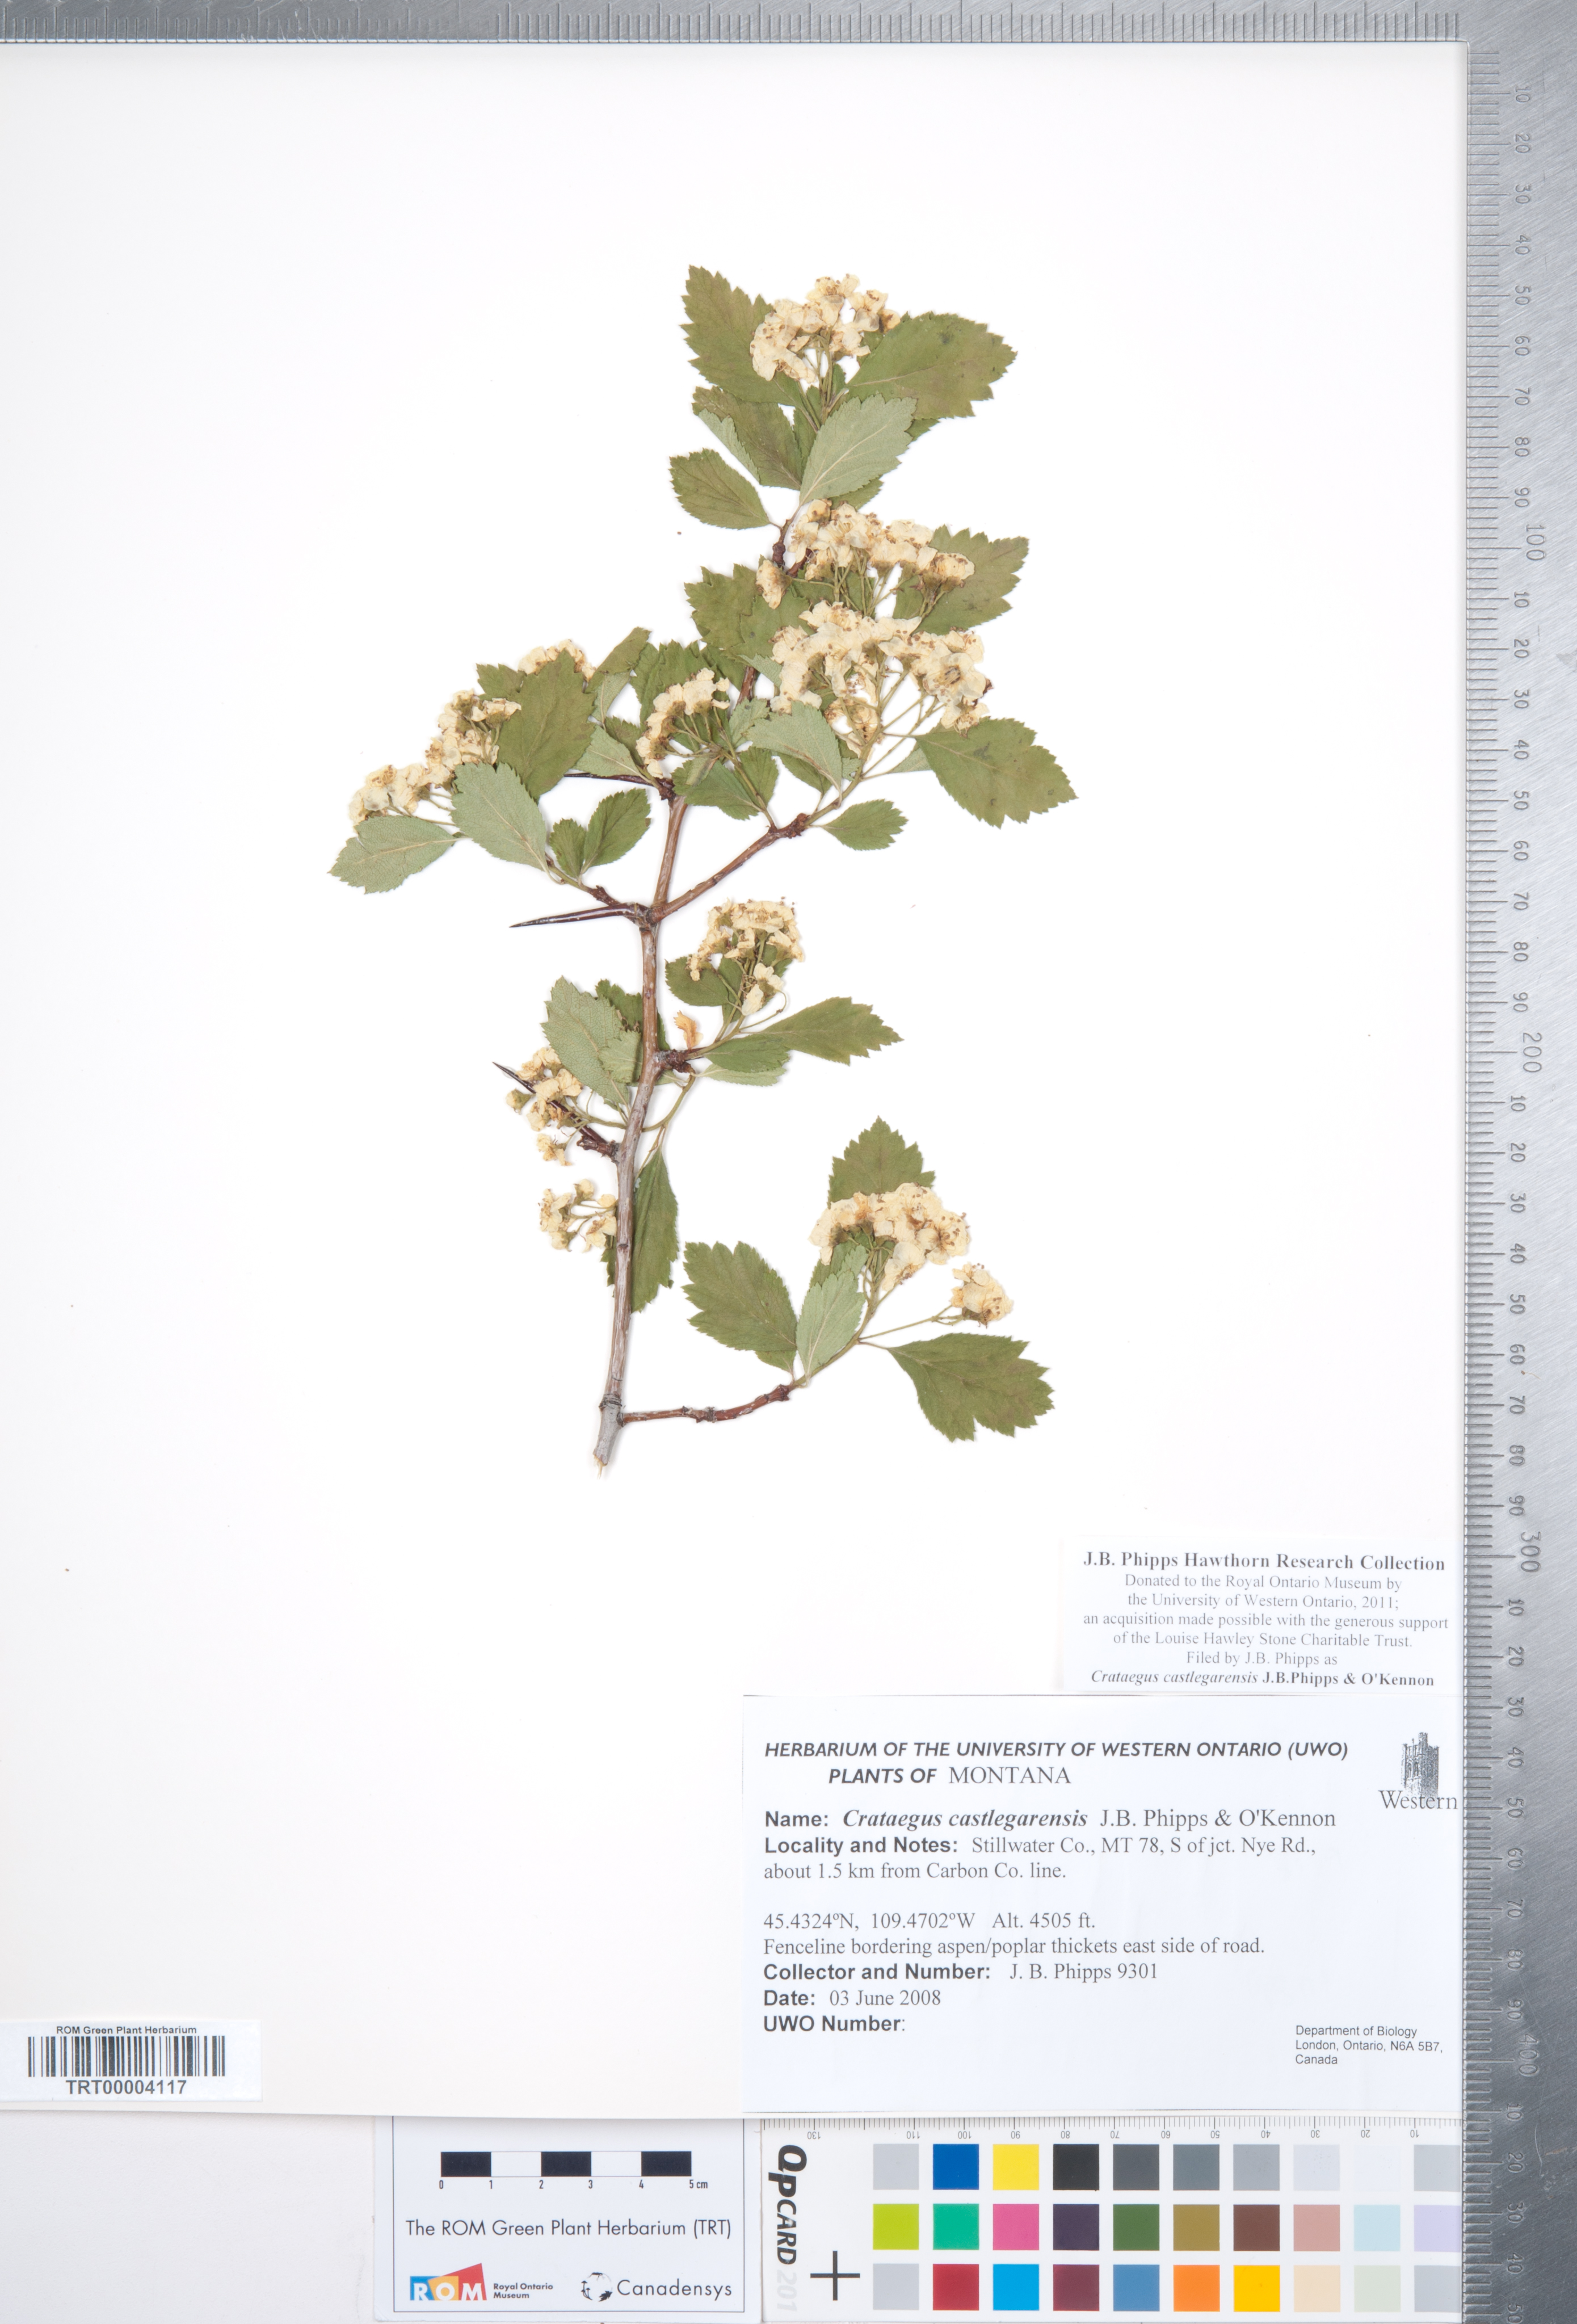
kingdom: Plantae
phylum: Tracheophyta
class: Magnoliopsida
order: Rosales
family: Rosaceae
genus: Crataegus
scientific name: Crataegus castlegarensis
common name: Castlegar hawthorn
